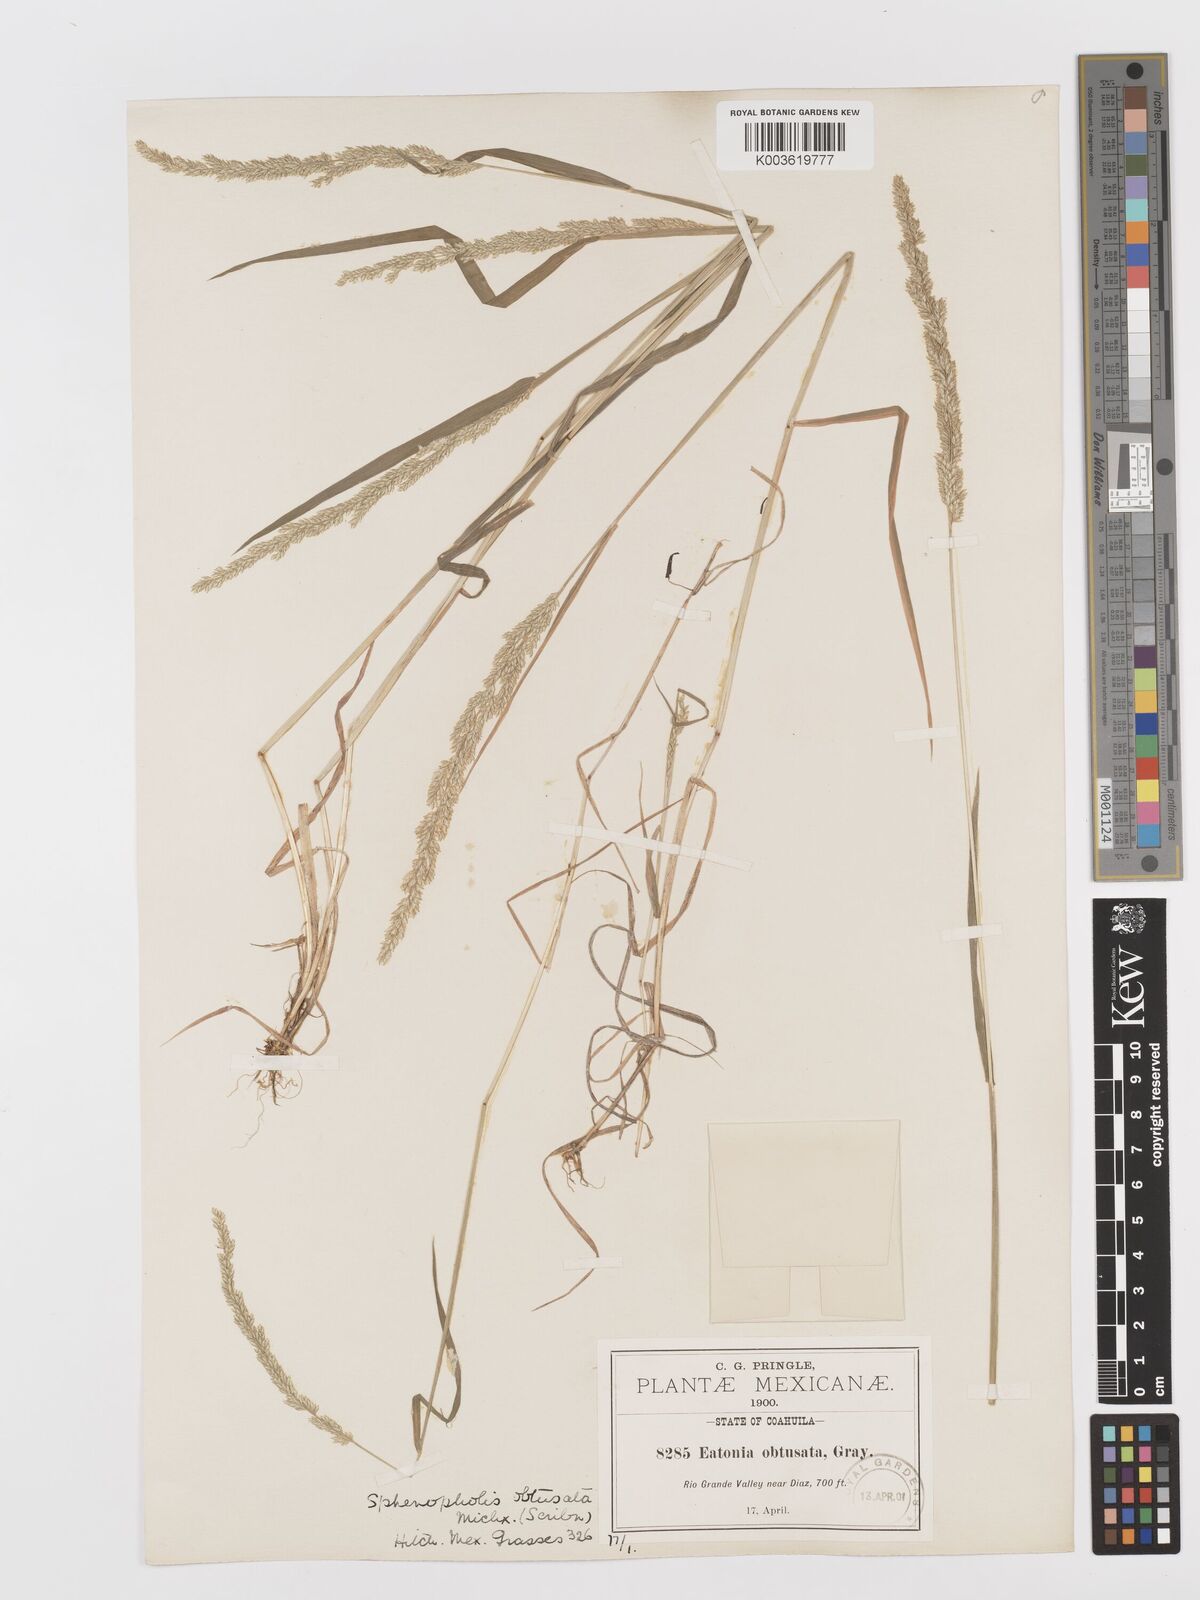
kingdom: Plantae
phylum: Tracheophyta
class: Liliopsida
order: Poales
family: Poaceae
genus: Sphenopholis
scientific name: Sphenopholis obtusata
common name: Prairie grass
